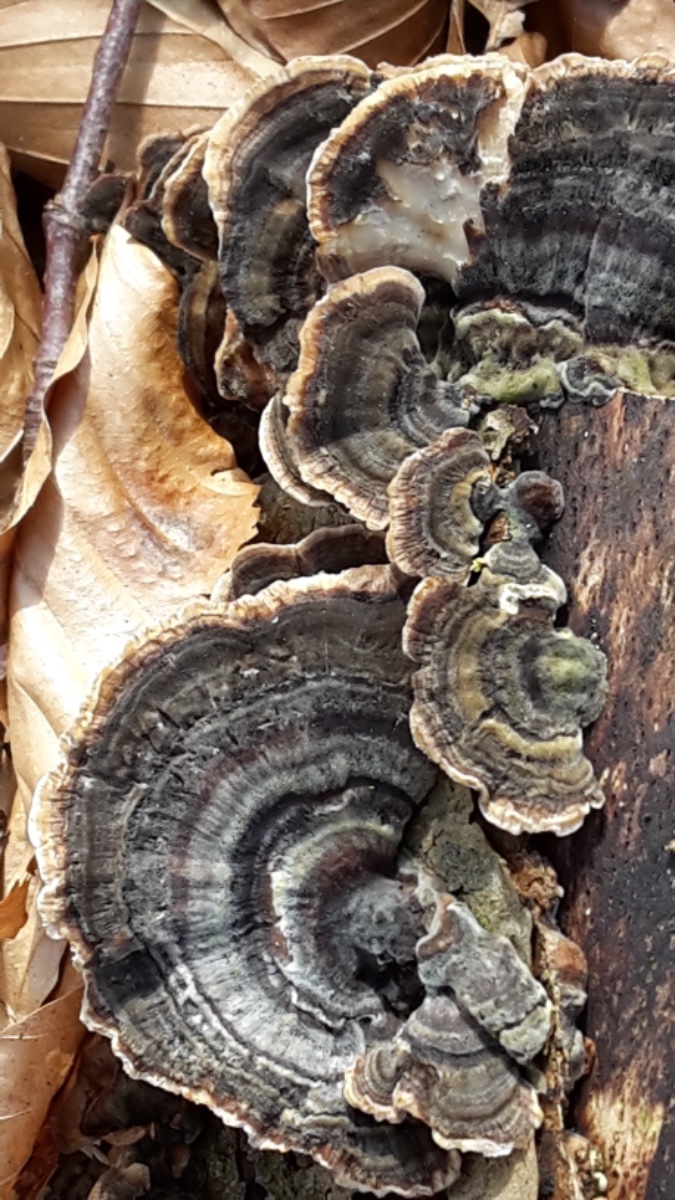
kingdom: Fungi
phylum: Basidiomycota
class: Agaricomycetes
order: Polyporales
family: Polyporaceae
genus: Trametes
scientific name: Trametes versicolor
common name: broget læderporesvamp
